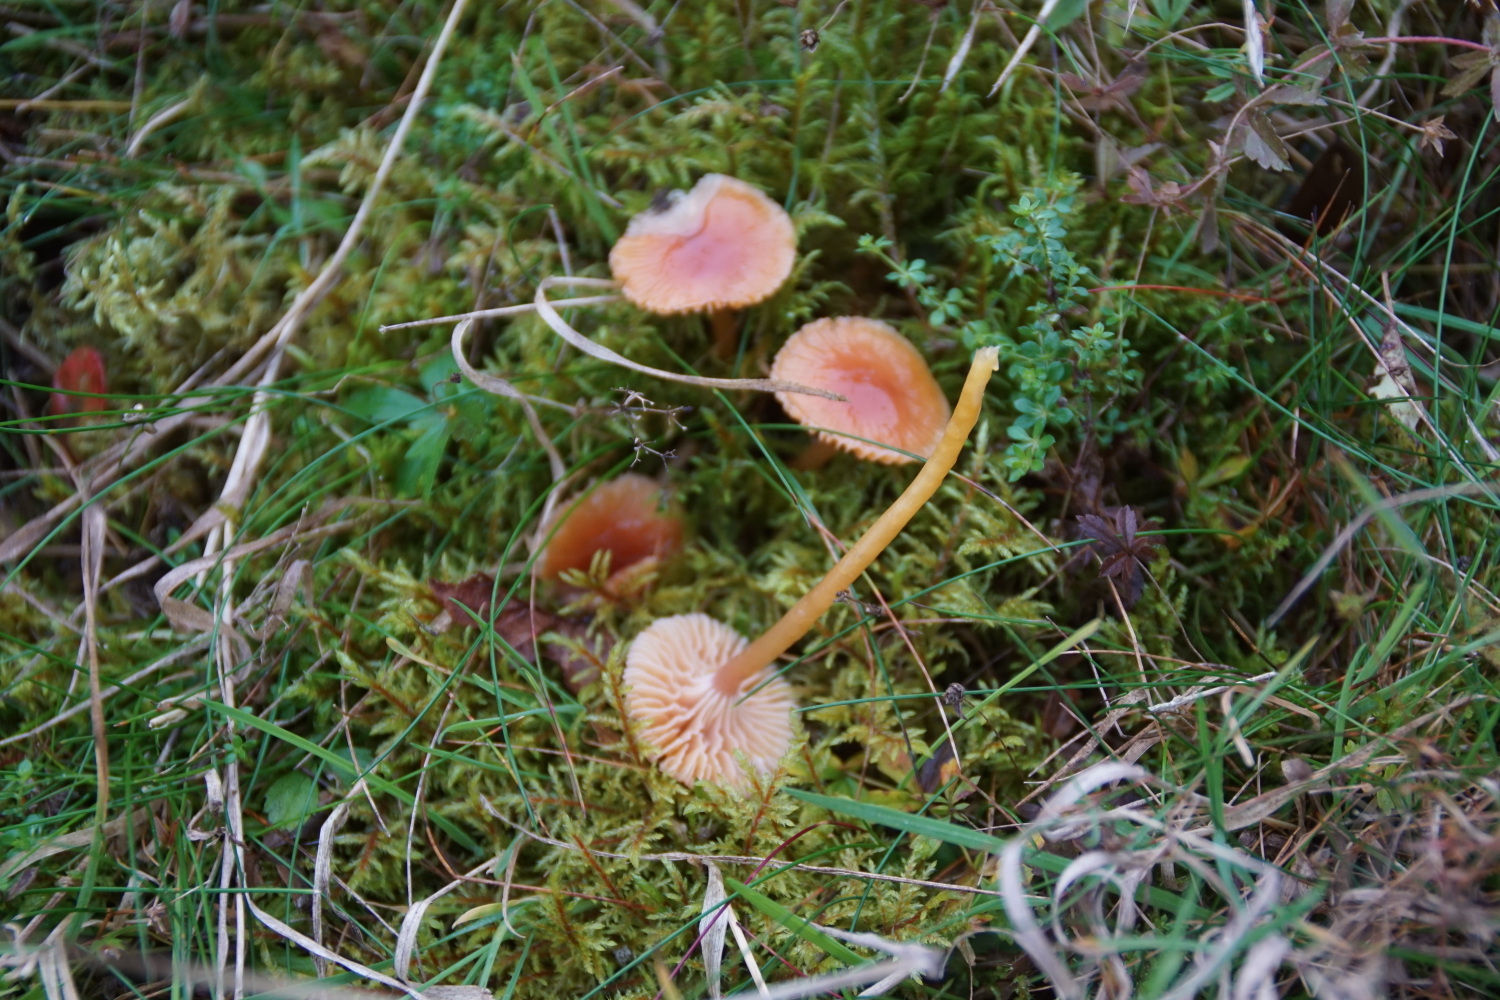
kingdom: Fungi
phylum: Basidiomycota
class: Agaricomycetes
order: Agaricales
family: Hygrophoraceae
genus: Gliophorus
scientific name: Gliophorus laetus
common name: brusk-vokshat
